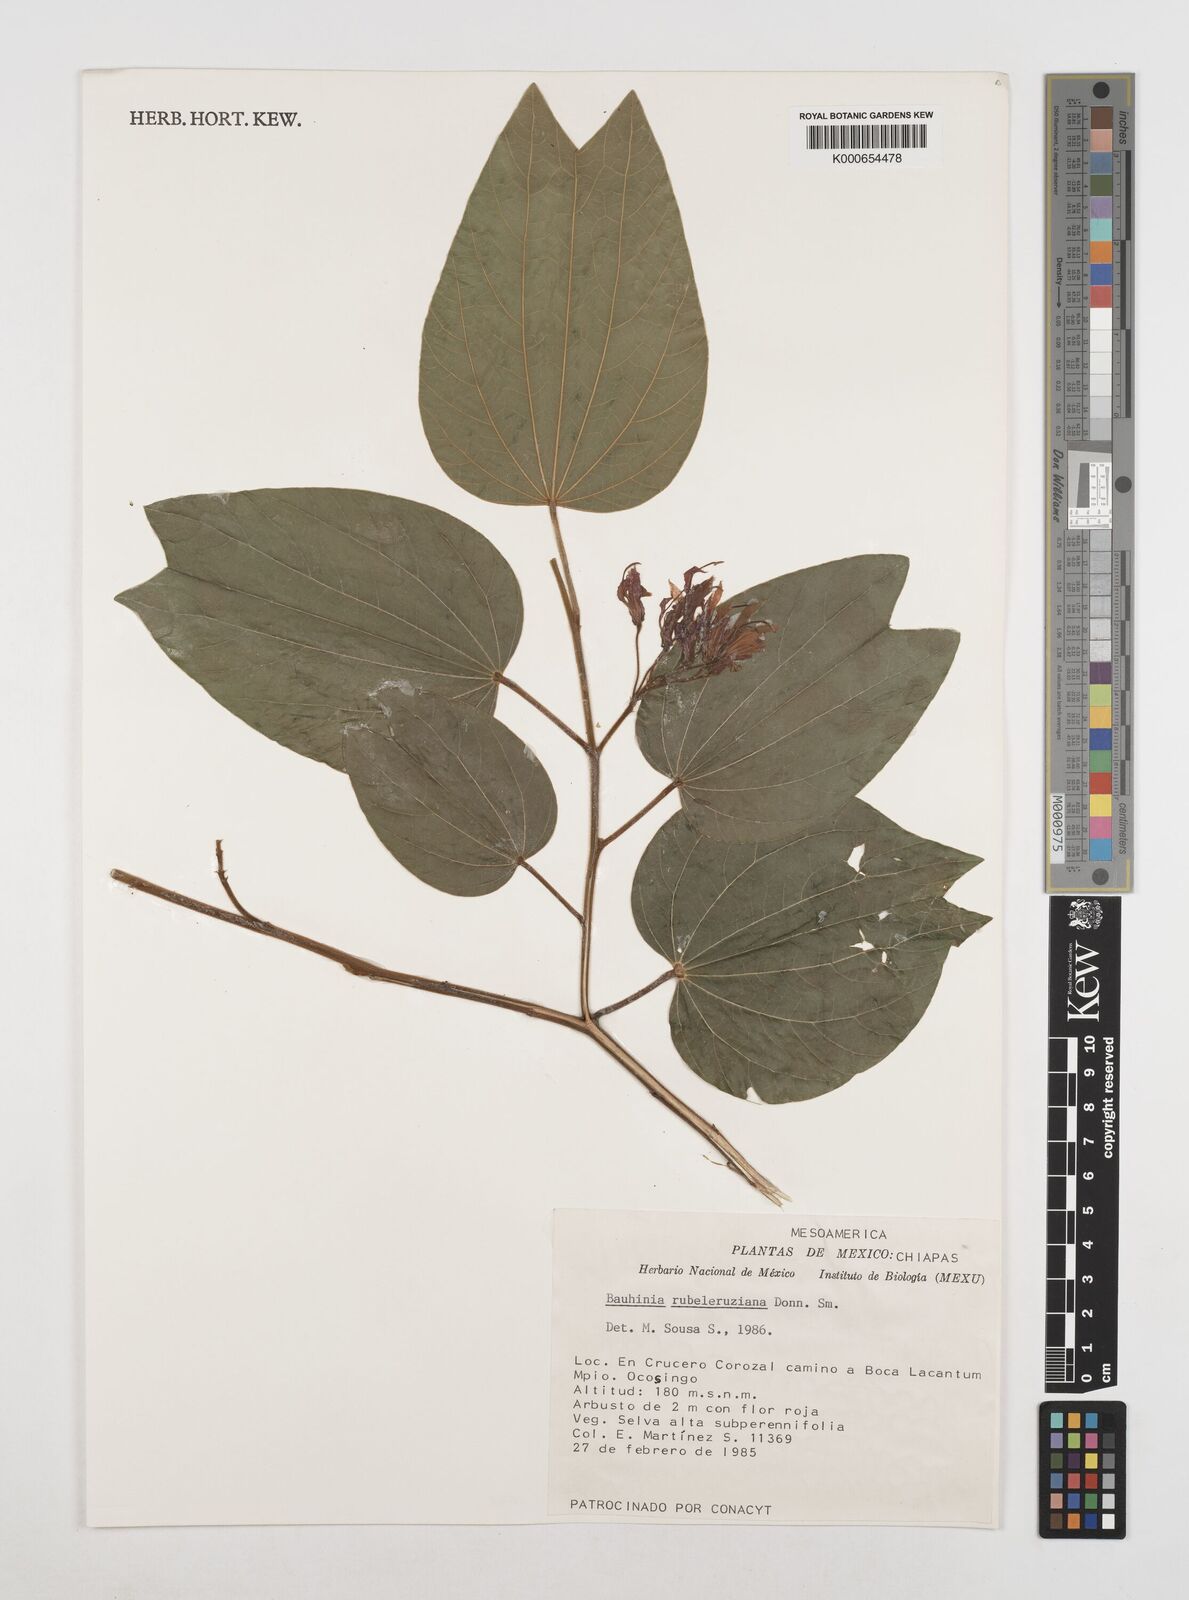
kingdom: Plantae
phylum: Tracheophyta
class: Magnoliopsida
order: Fabales
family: Fabaceae
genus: Bauhinia
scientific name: Bauhinia rubeleruziana
